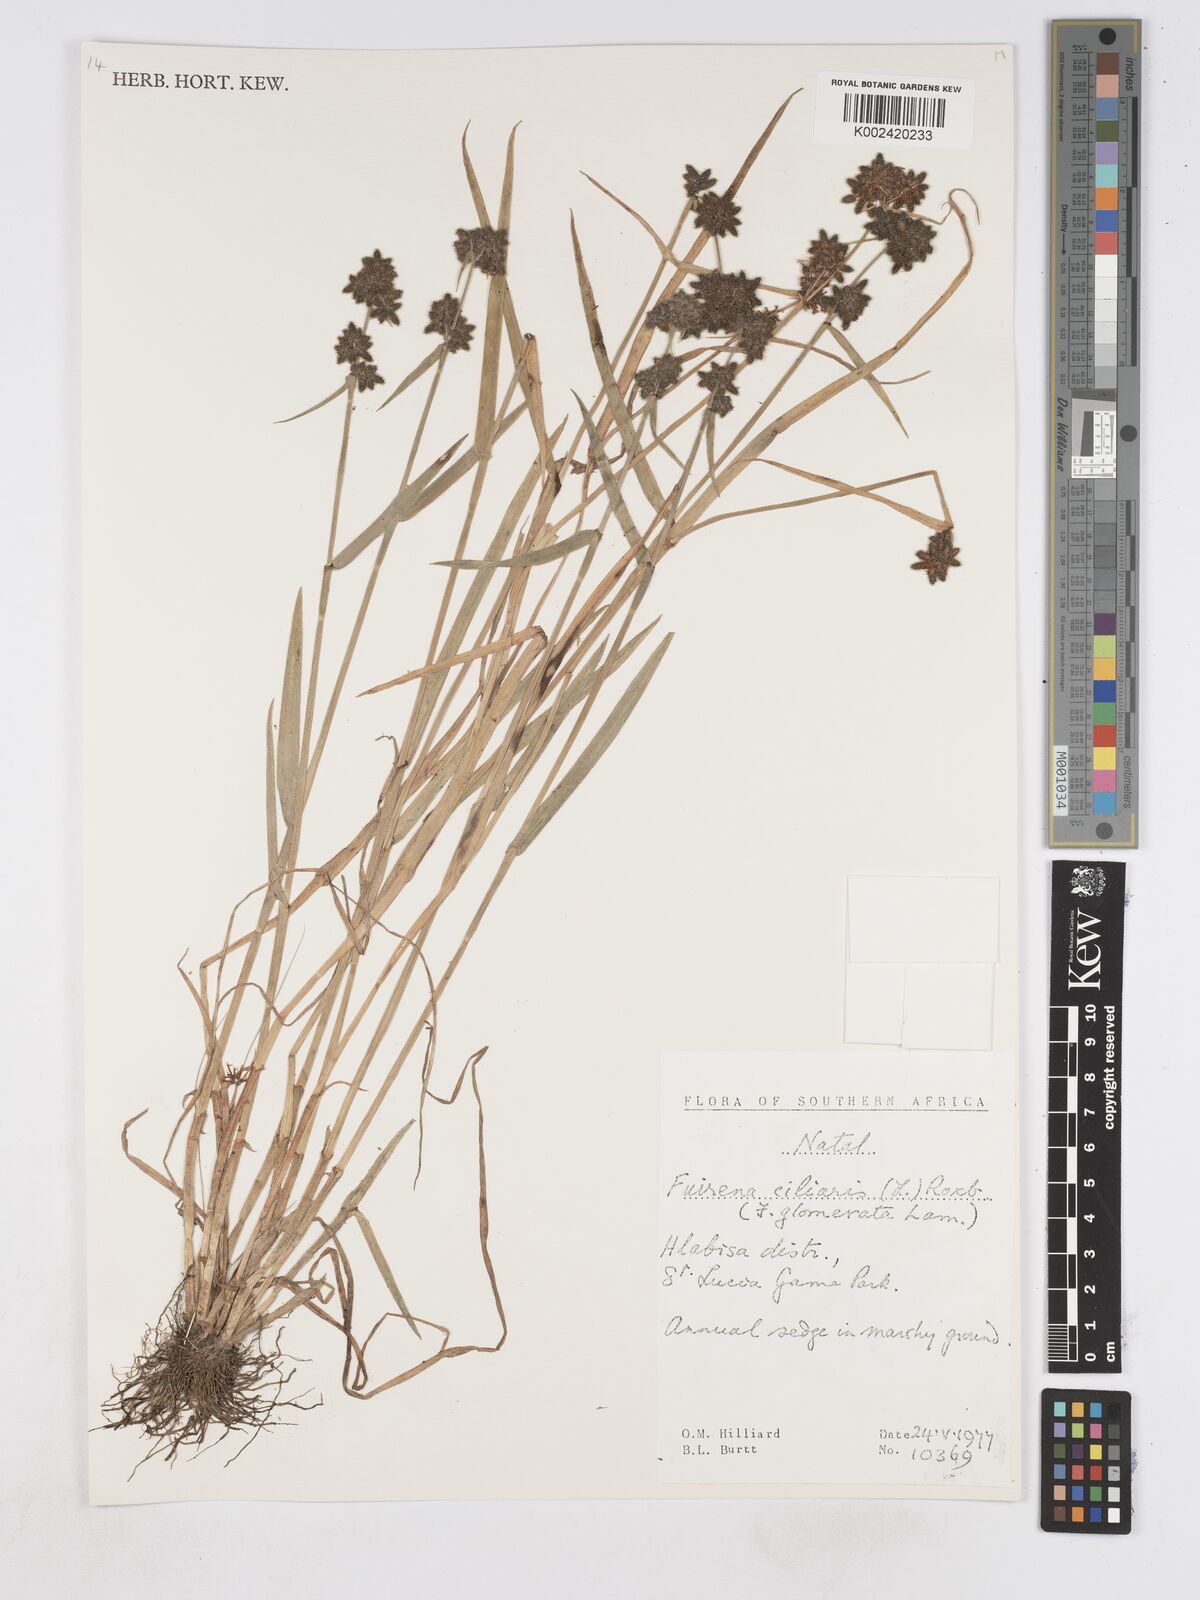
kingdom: Plantae
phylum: Tracheophyta
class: Liliopsida
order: Poales
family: Cyperaceae
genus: Fuirena
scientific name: Fuirena ciliaris
